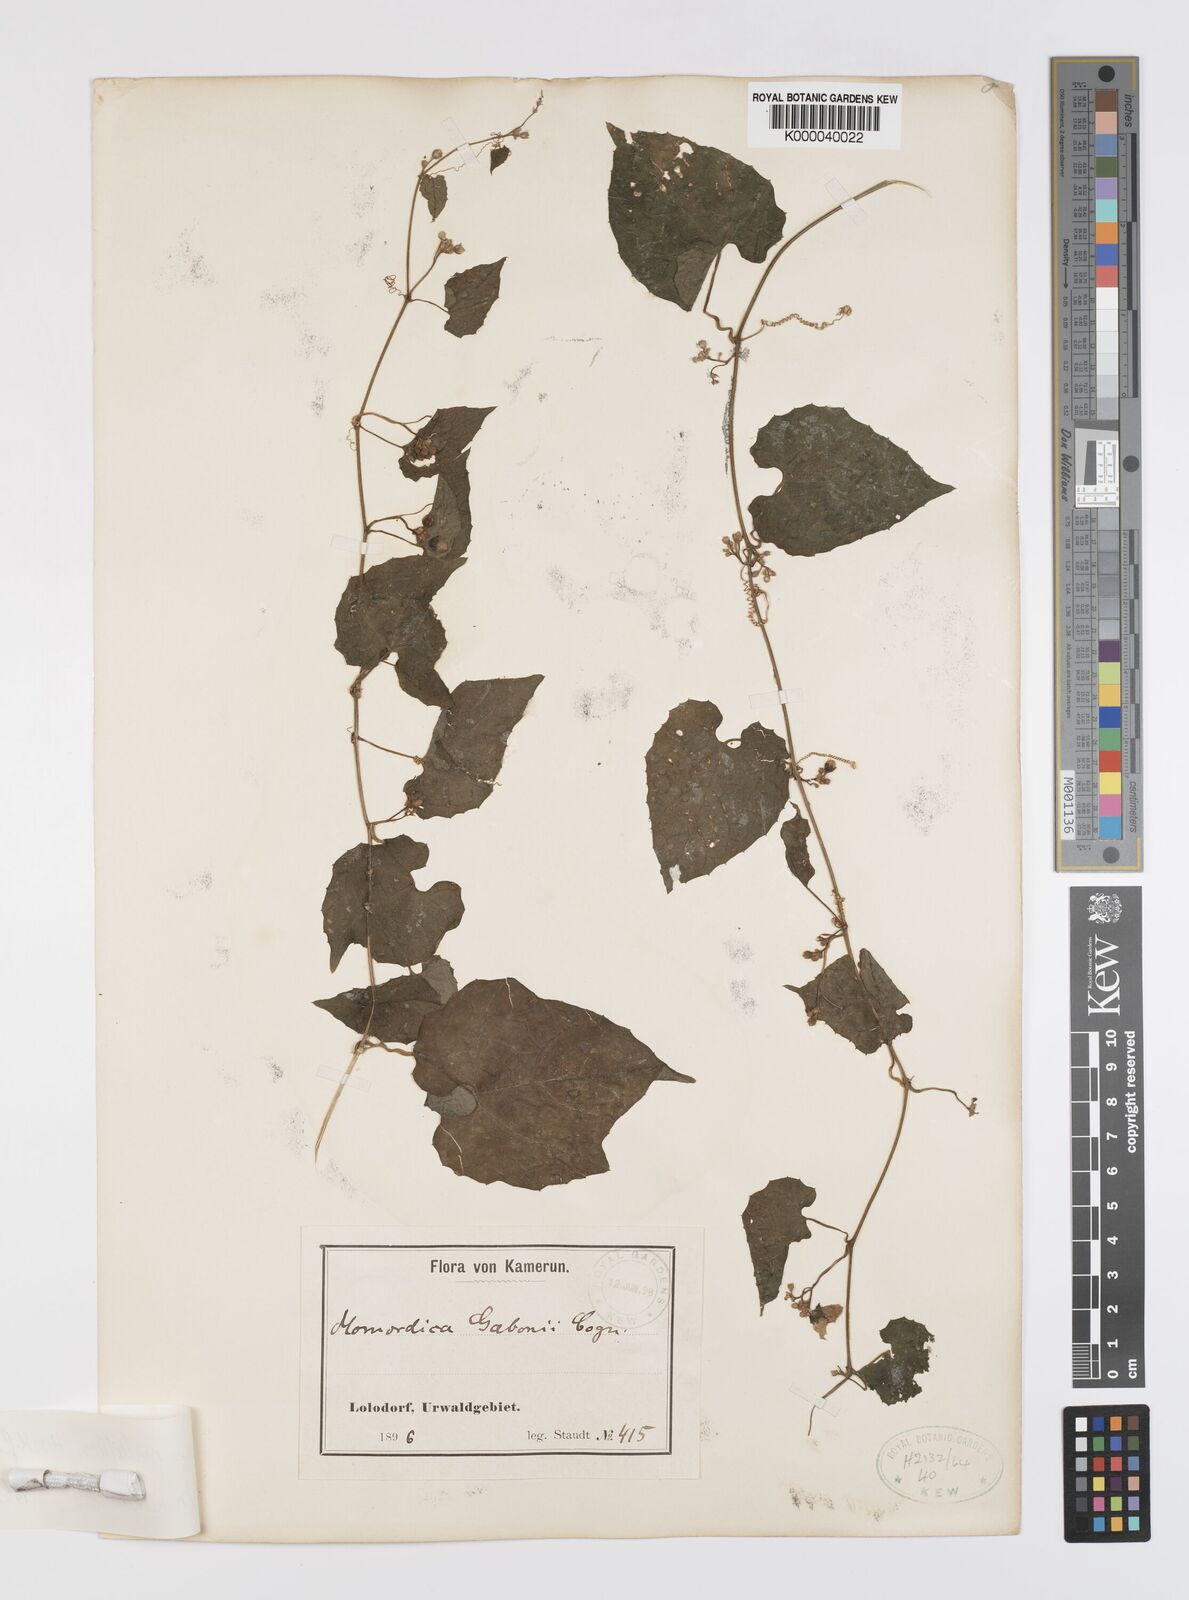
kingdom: Plantae
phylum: Tracheophyta
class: Magnoliopsida
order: Cucurbitales
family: Cucurbitaceae
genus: Momordica
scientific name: Momordica multiflora
